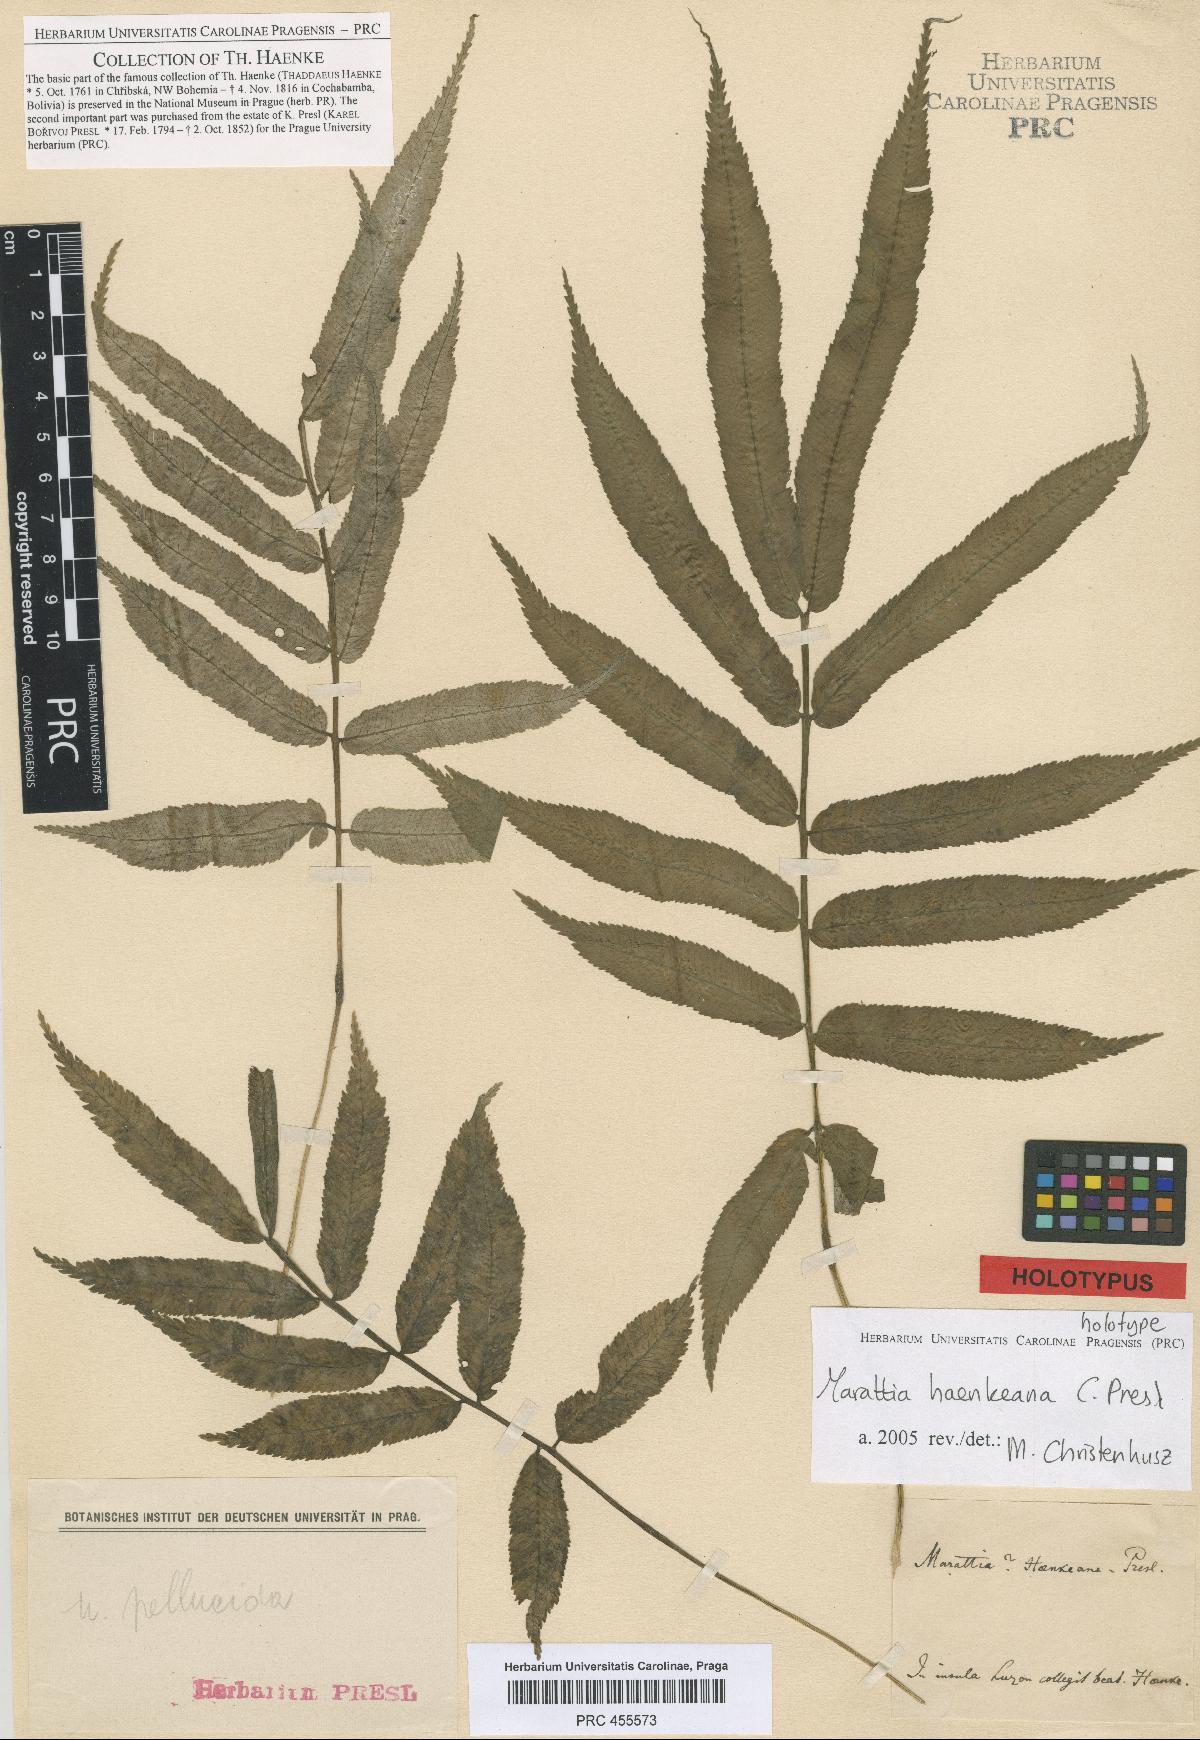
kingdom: Plantae
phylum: Tracheophyta
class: Polypodiopsida
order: Marattiales
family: Marattiaceae
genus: Ptisana
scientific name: Ptisana pellucida
